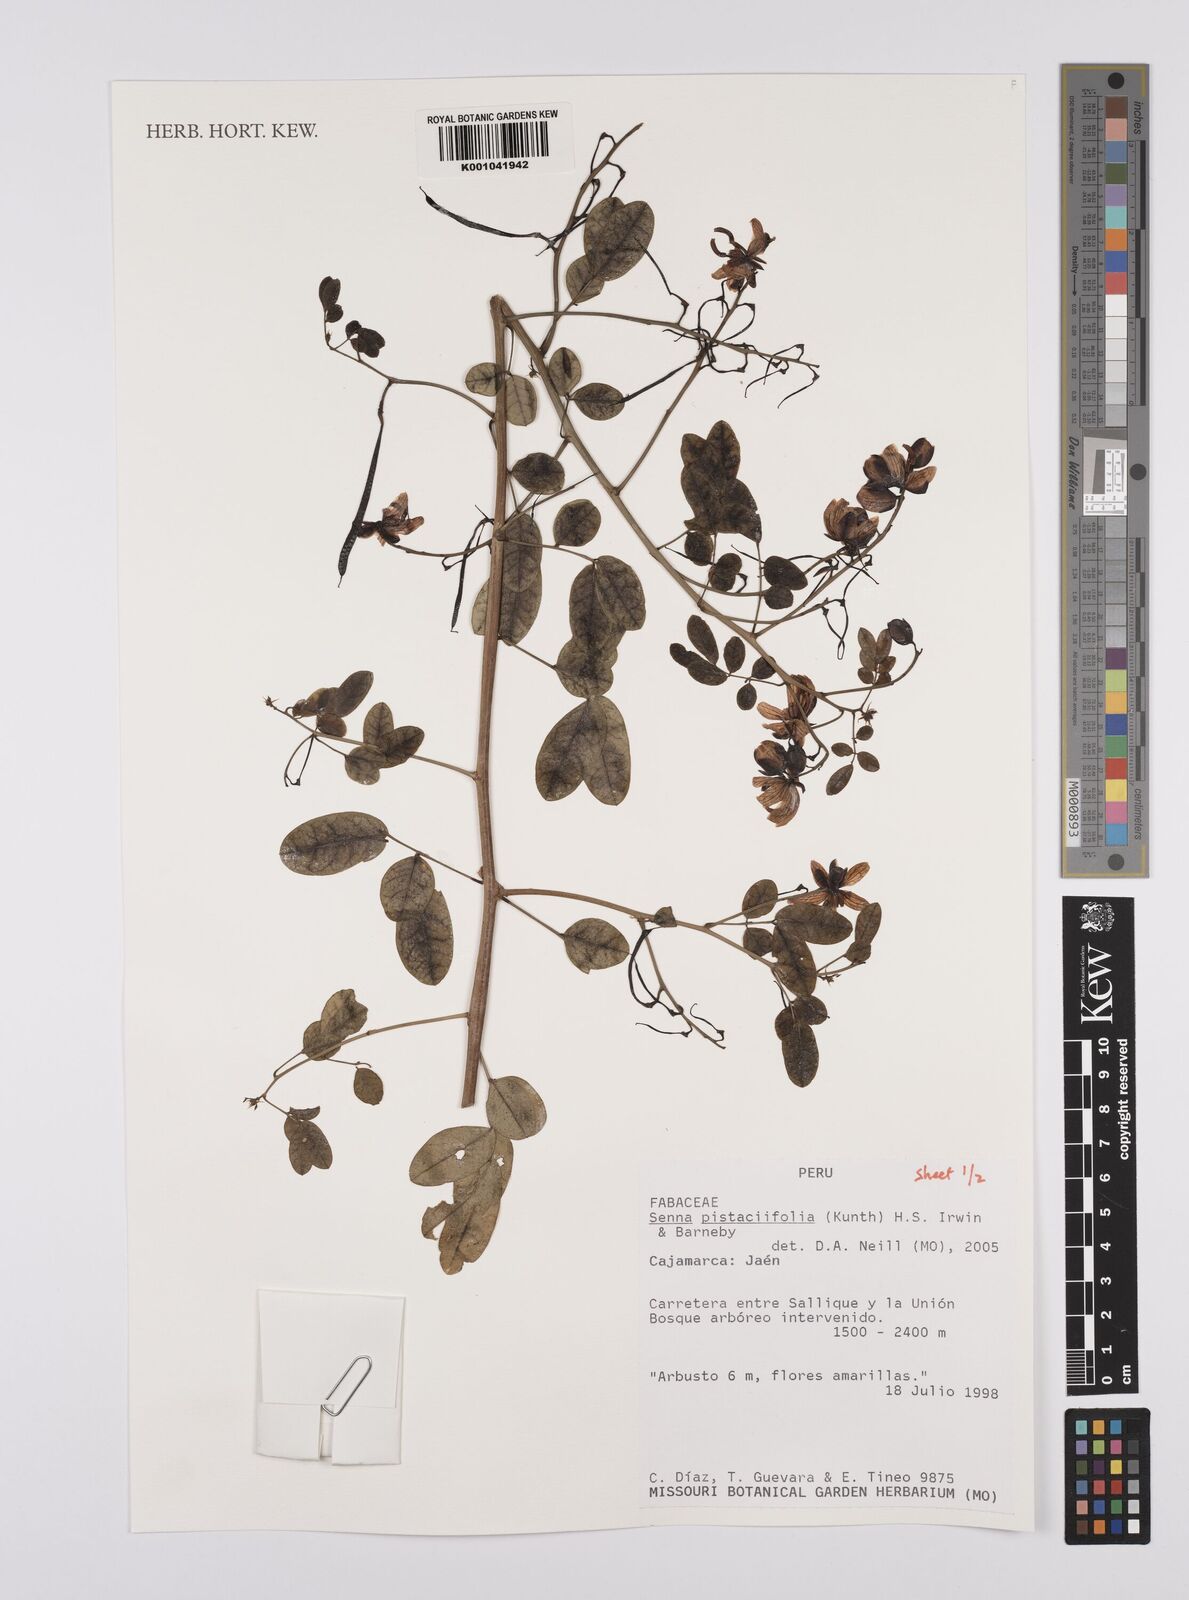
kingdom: Plantae
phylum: Tracheophyta
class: Magnoliopsida
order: Fabales
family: Fabaceae
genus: Senna
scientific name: Senna pistaciifolia
